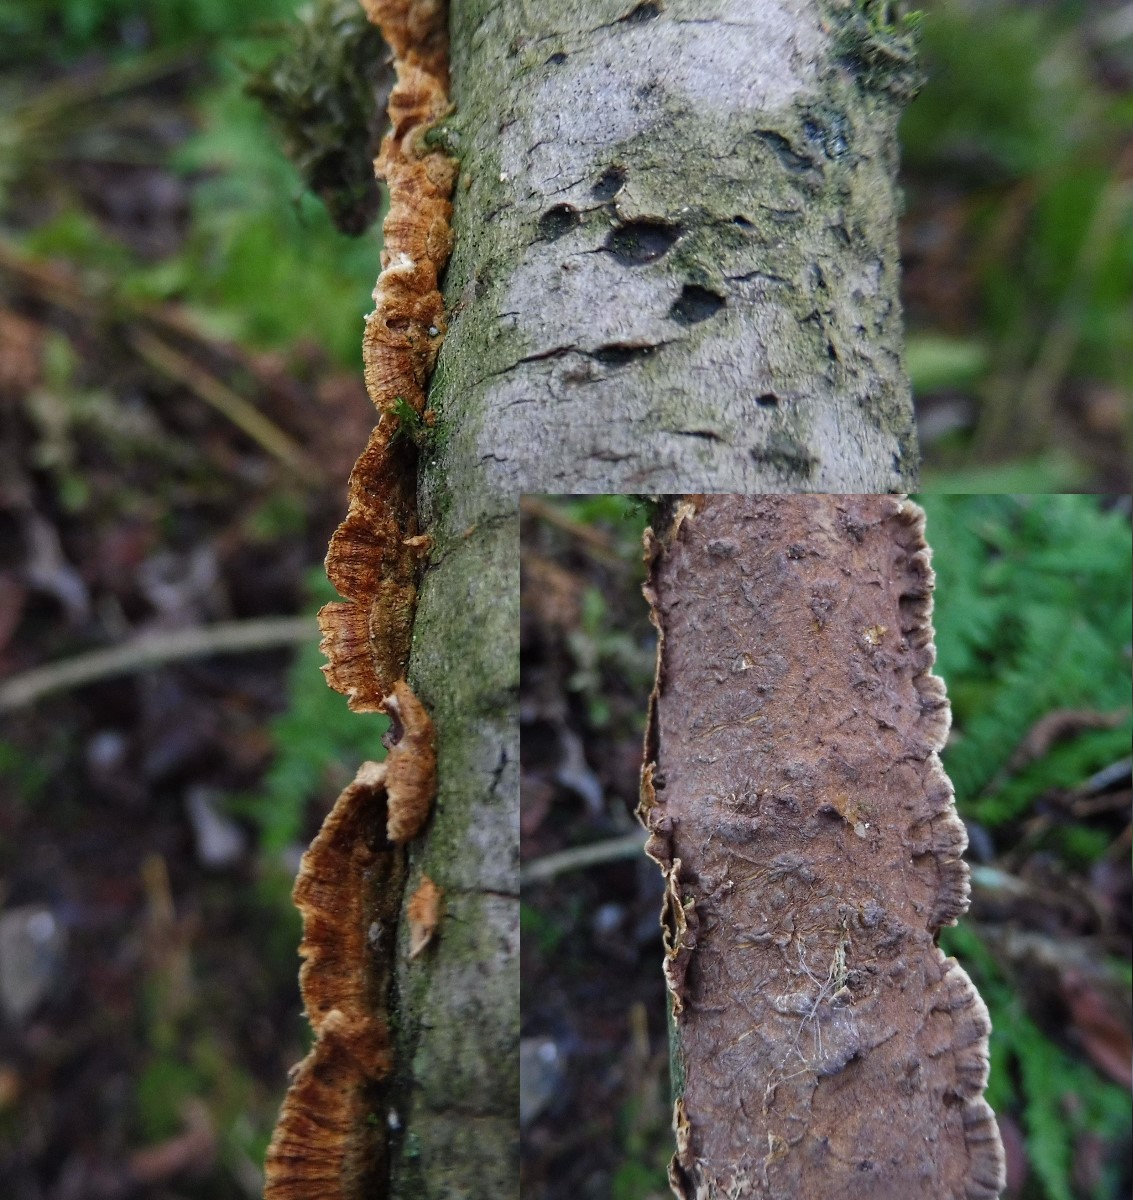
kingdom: Fungi
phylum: Basidiomycota
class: Agaricomycetes
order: Hymenochaetales
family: Hymenochaetaceae
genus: Hydnoporia
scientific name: Hydnoporia tabacina
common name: tobaksbrun ruslædersvamp
